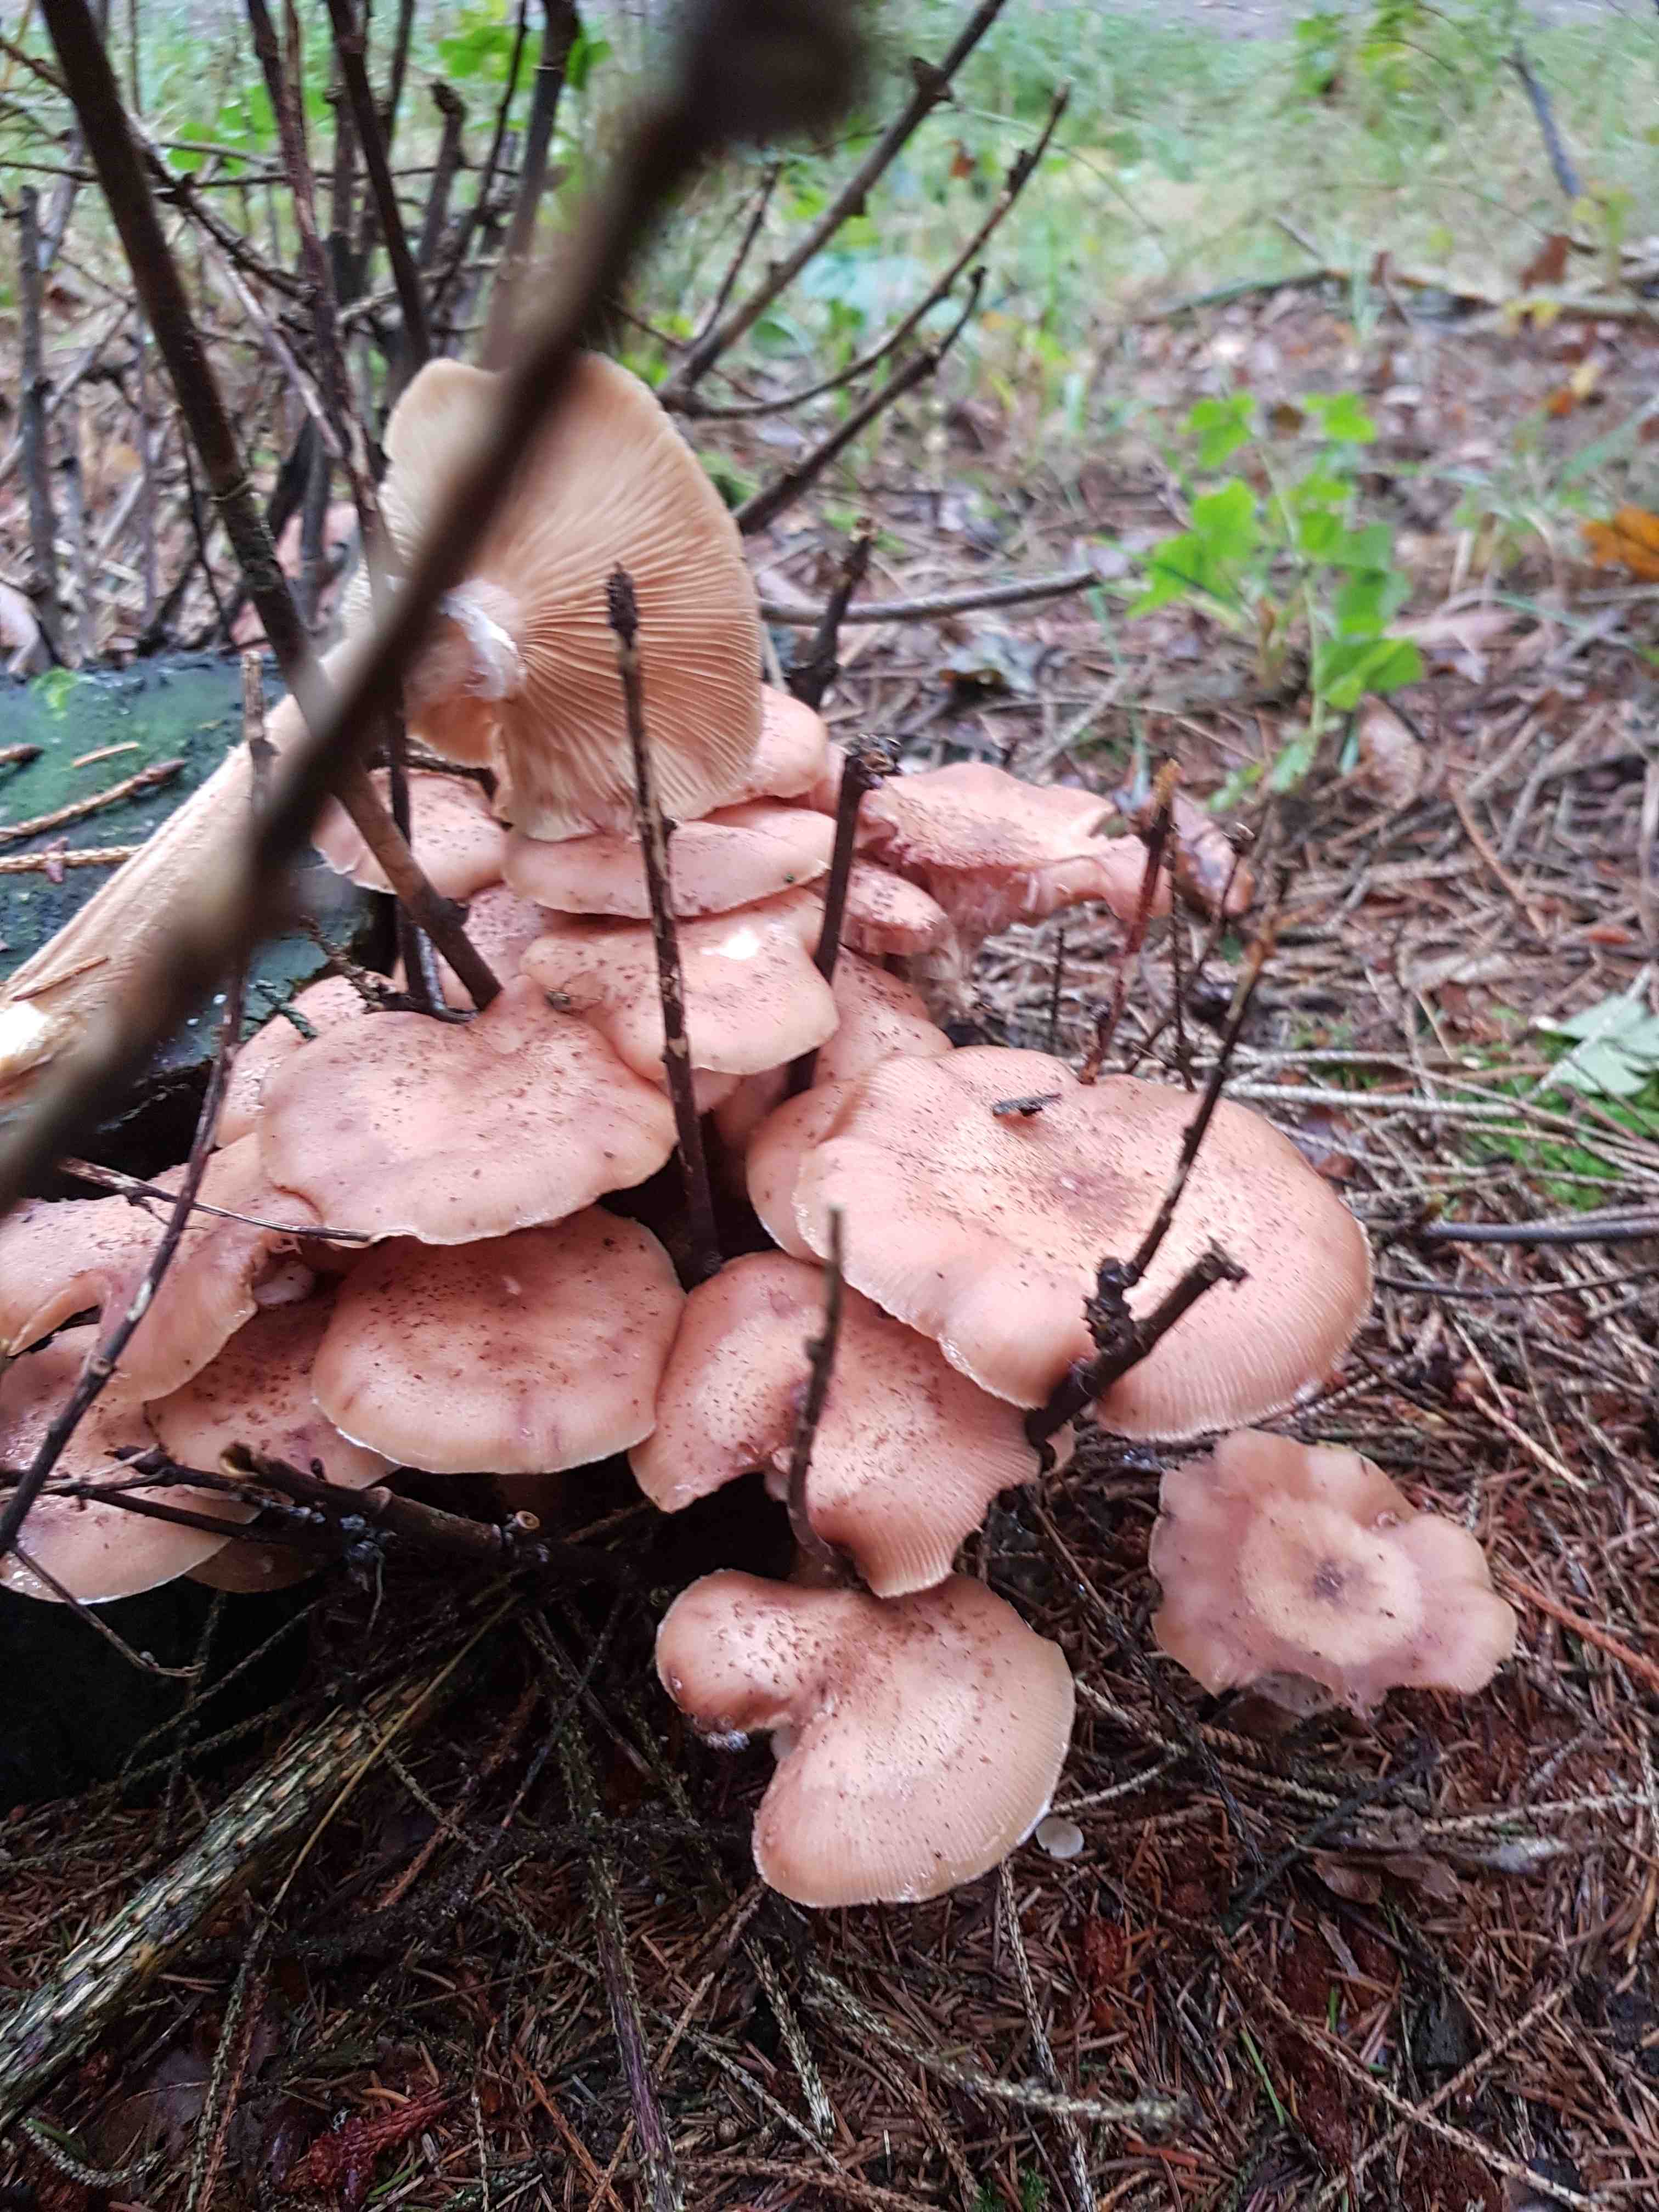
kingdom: Fungi
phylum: Basidiomycota
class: Agaricomycetes
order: Agaricales
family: Physalacriaceae
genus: Armillaria
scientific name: Armillaria
